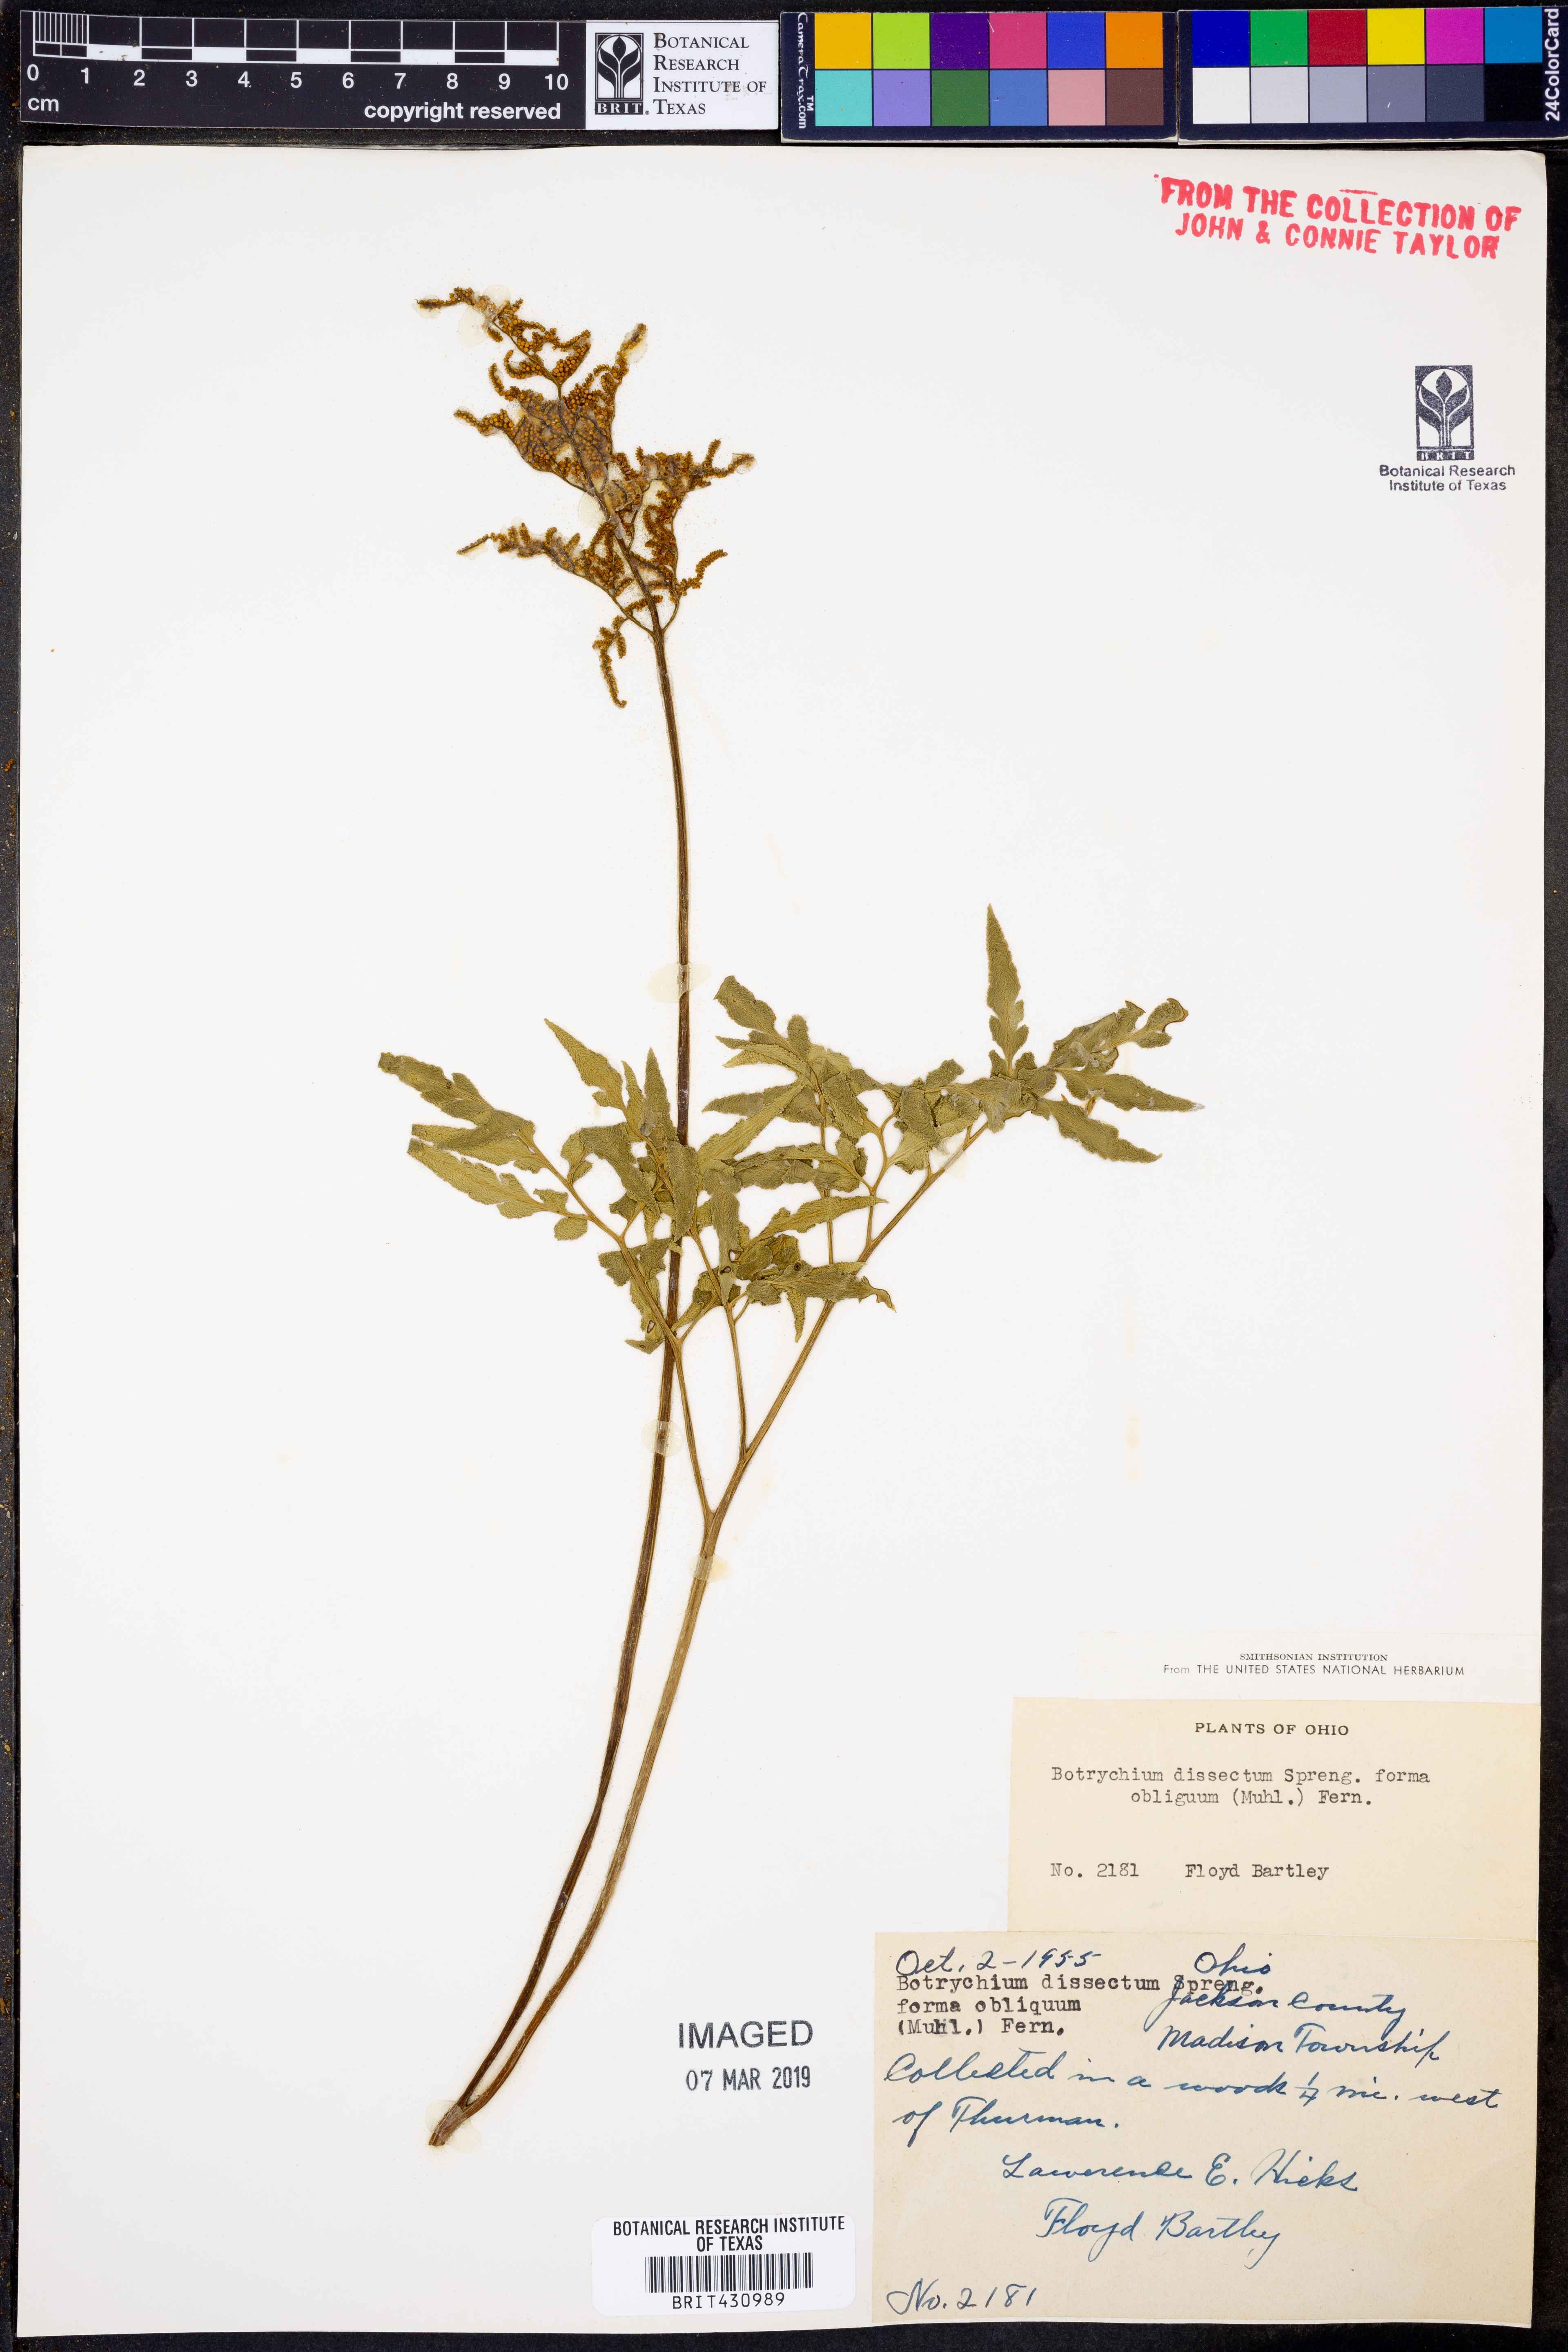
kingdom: Plantae
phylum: Tracheophyta
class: Polypodiopsida
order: Ophioglossales
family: Ophioglossaceae
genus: Sceptridium
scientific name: Sceptridium dissectum
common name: Cut-leaved grapefern
